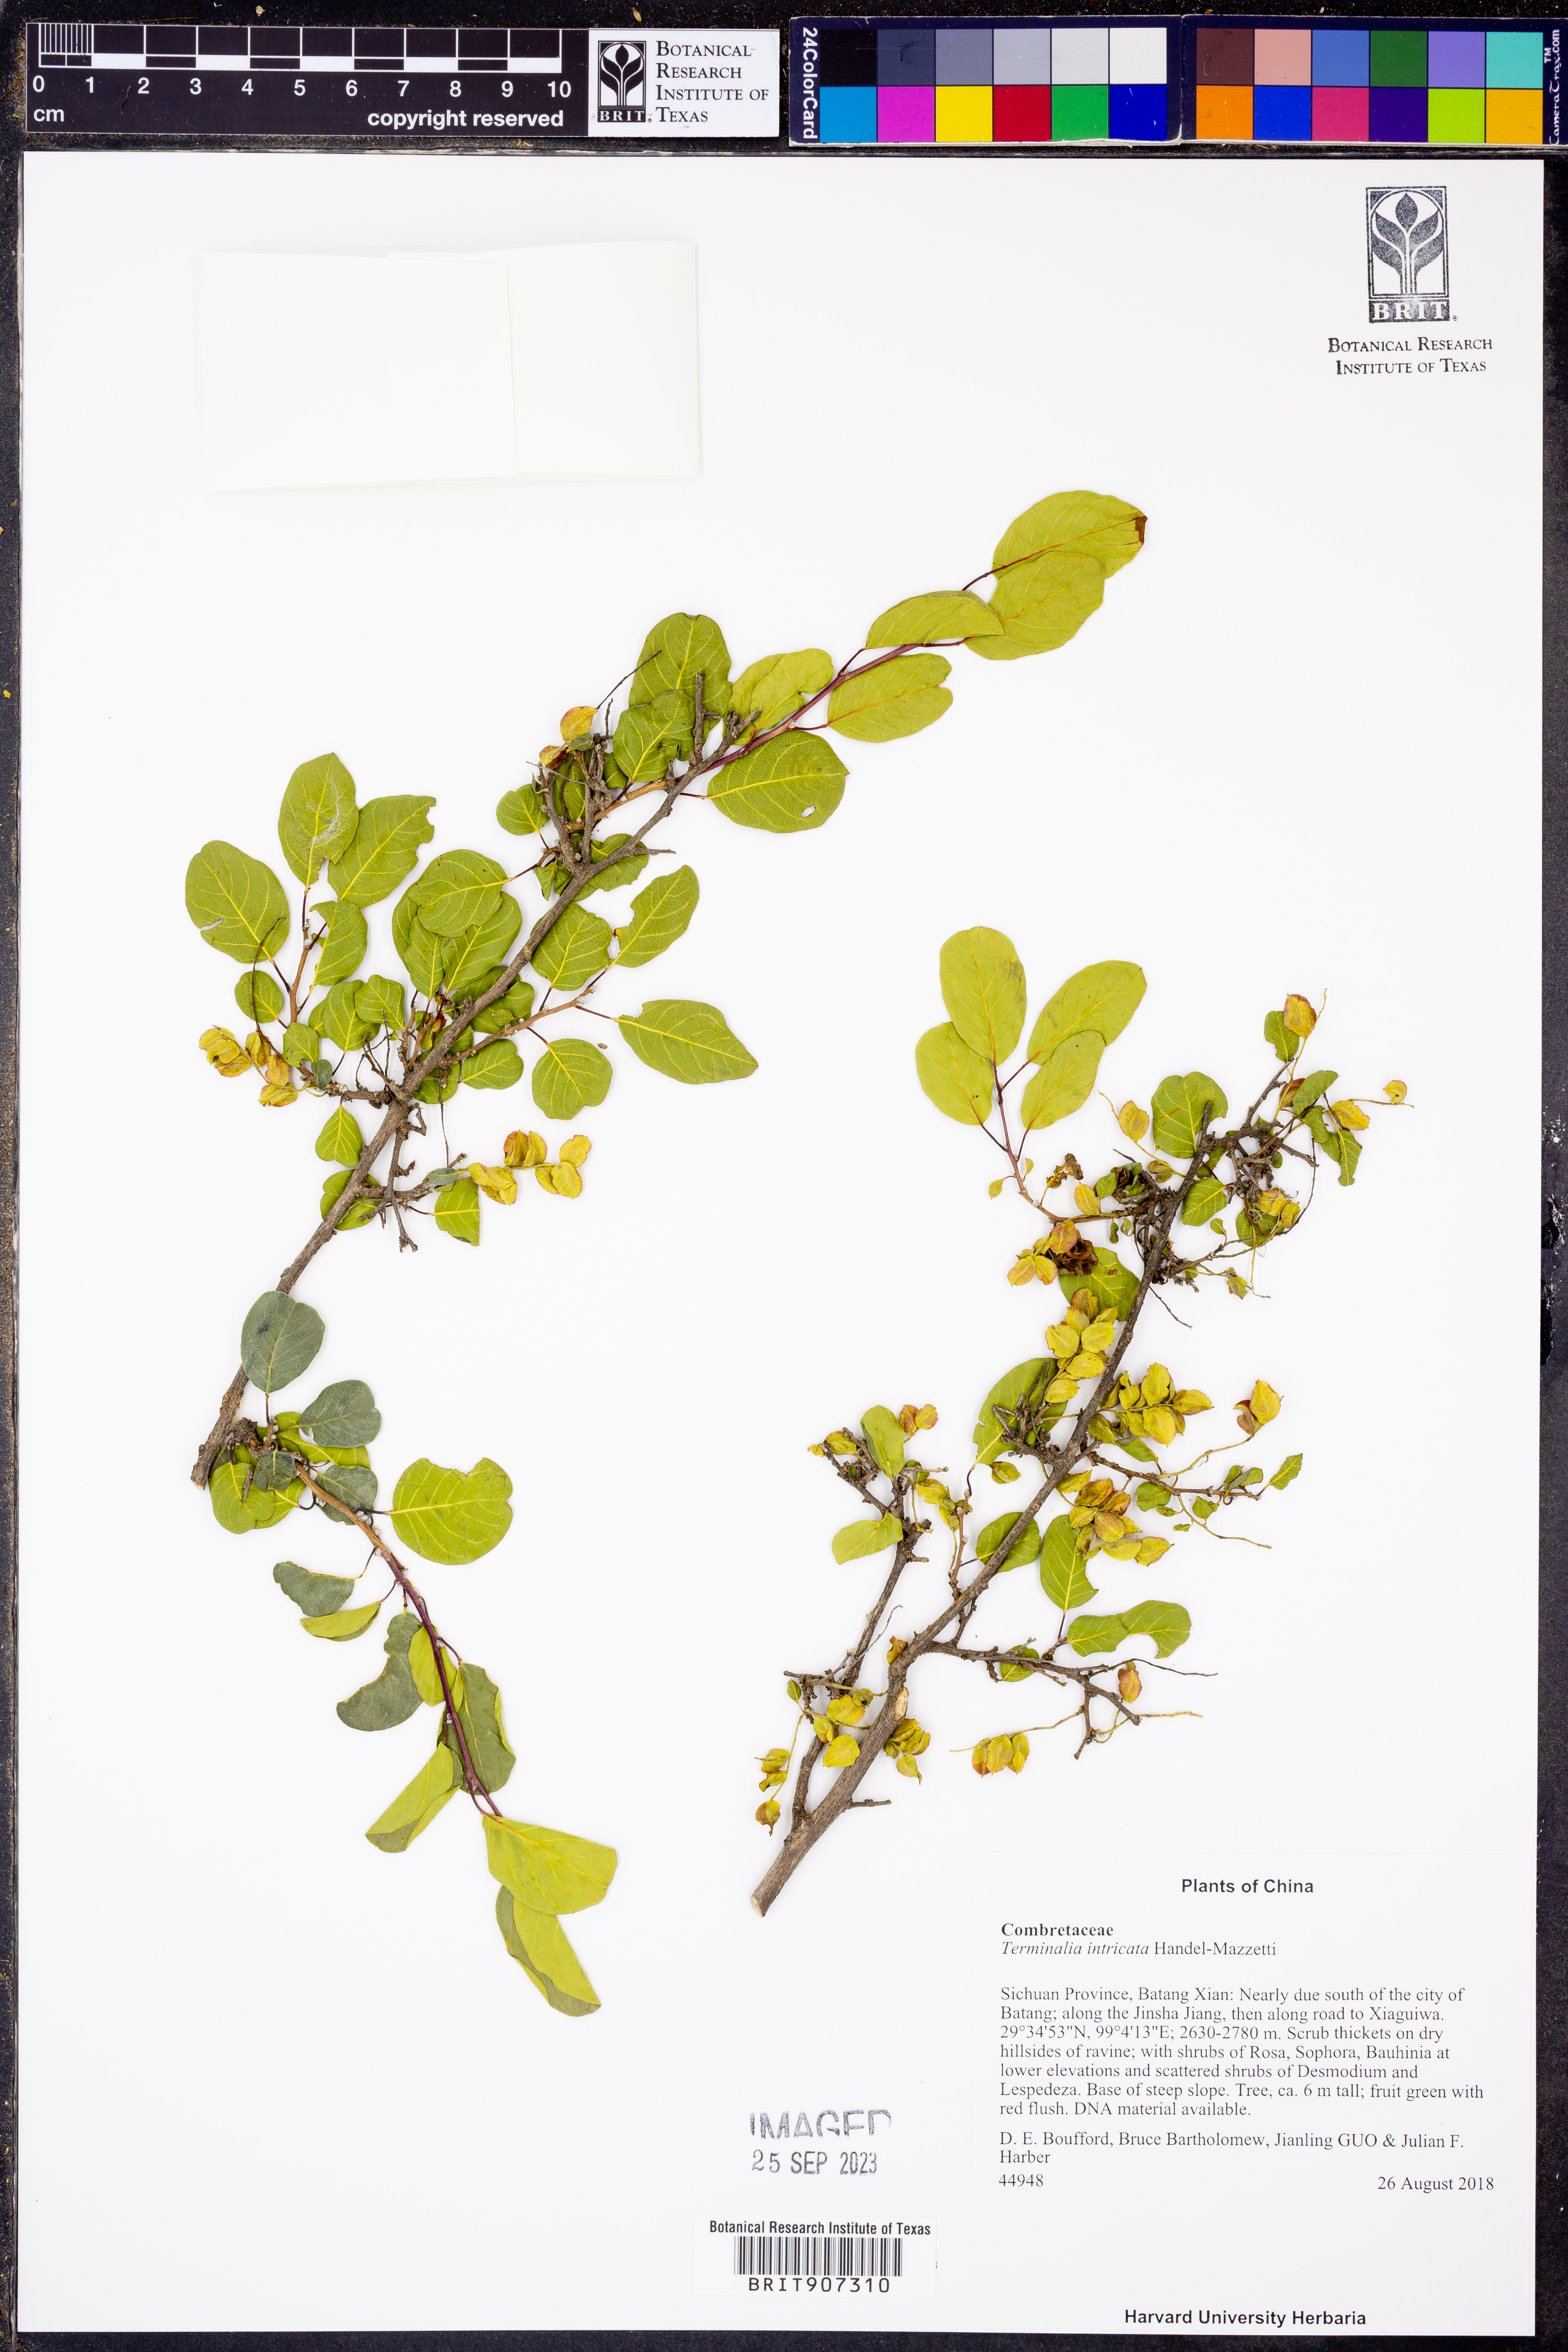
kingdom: Plantae
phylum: Tracheophyta
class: Magnoliopsida
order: Myrtales
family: Combretaceae
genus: Terminalia
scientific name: Terminalia franchetii
